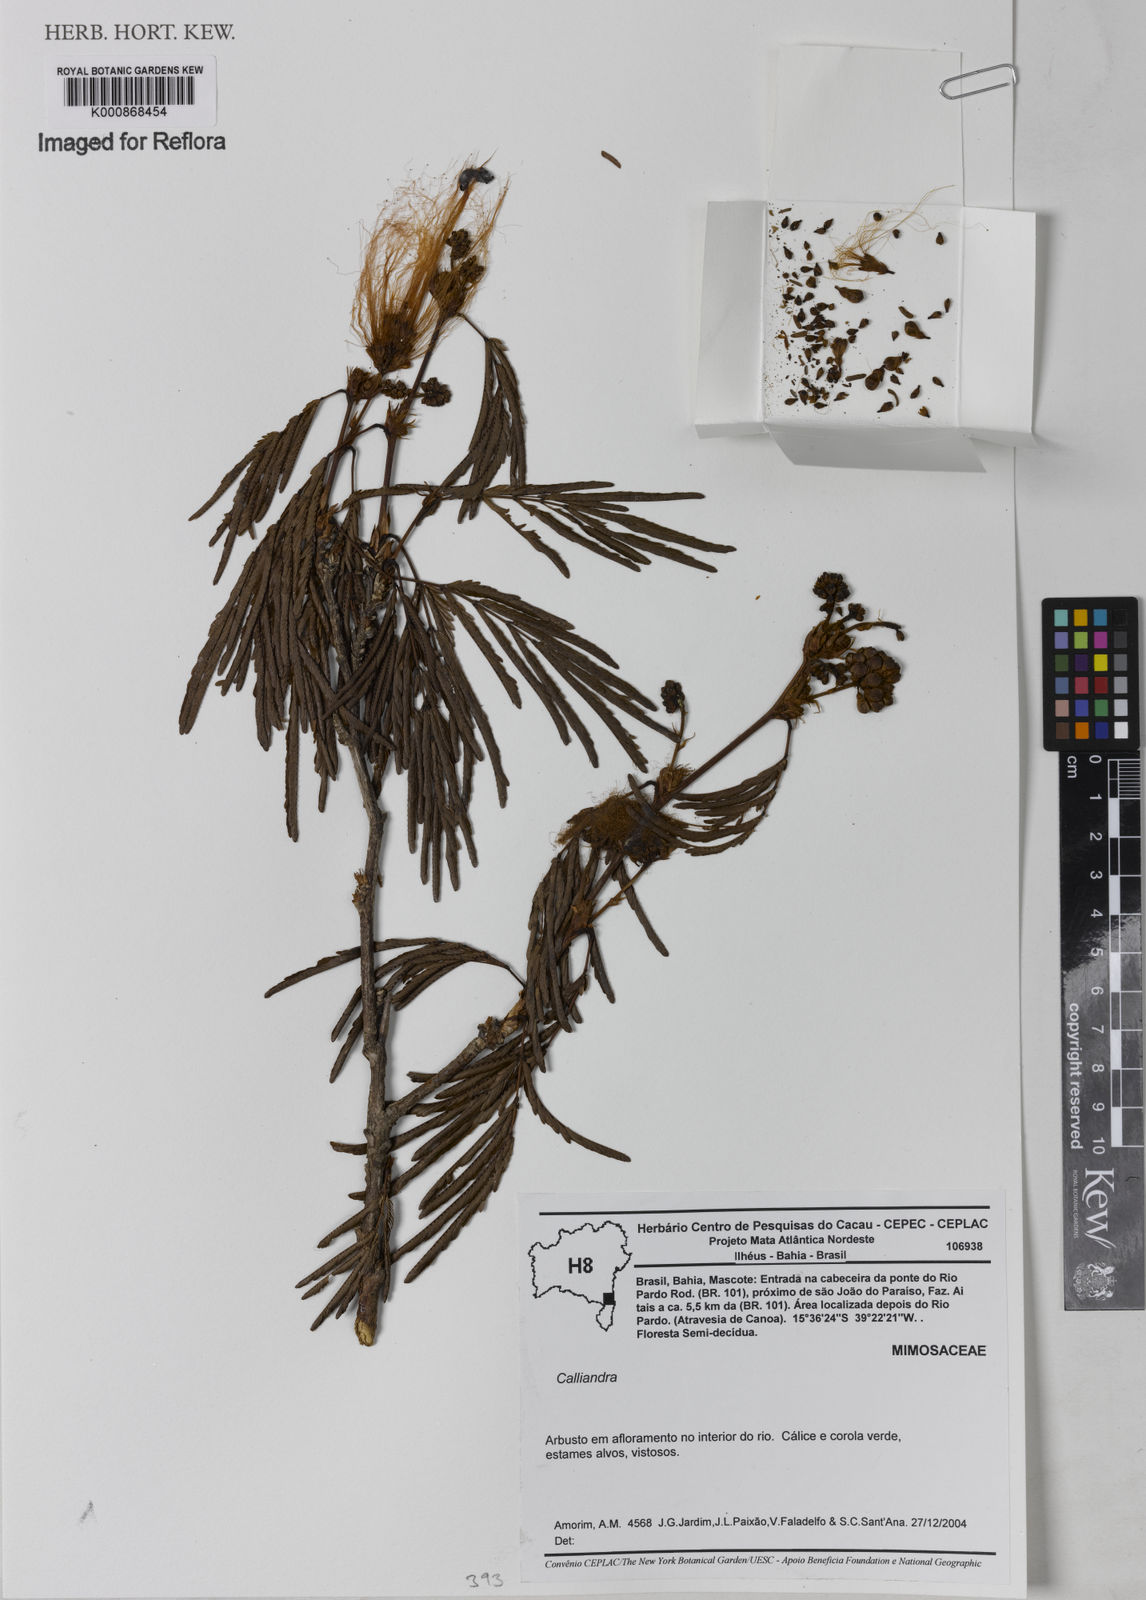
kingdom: Plantae
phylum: Tracheophyta
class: Magnoliopsida
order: Fabales
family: Fabaceae
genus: Calliandra
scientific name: Calliandra
